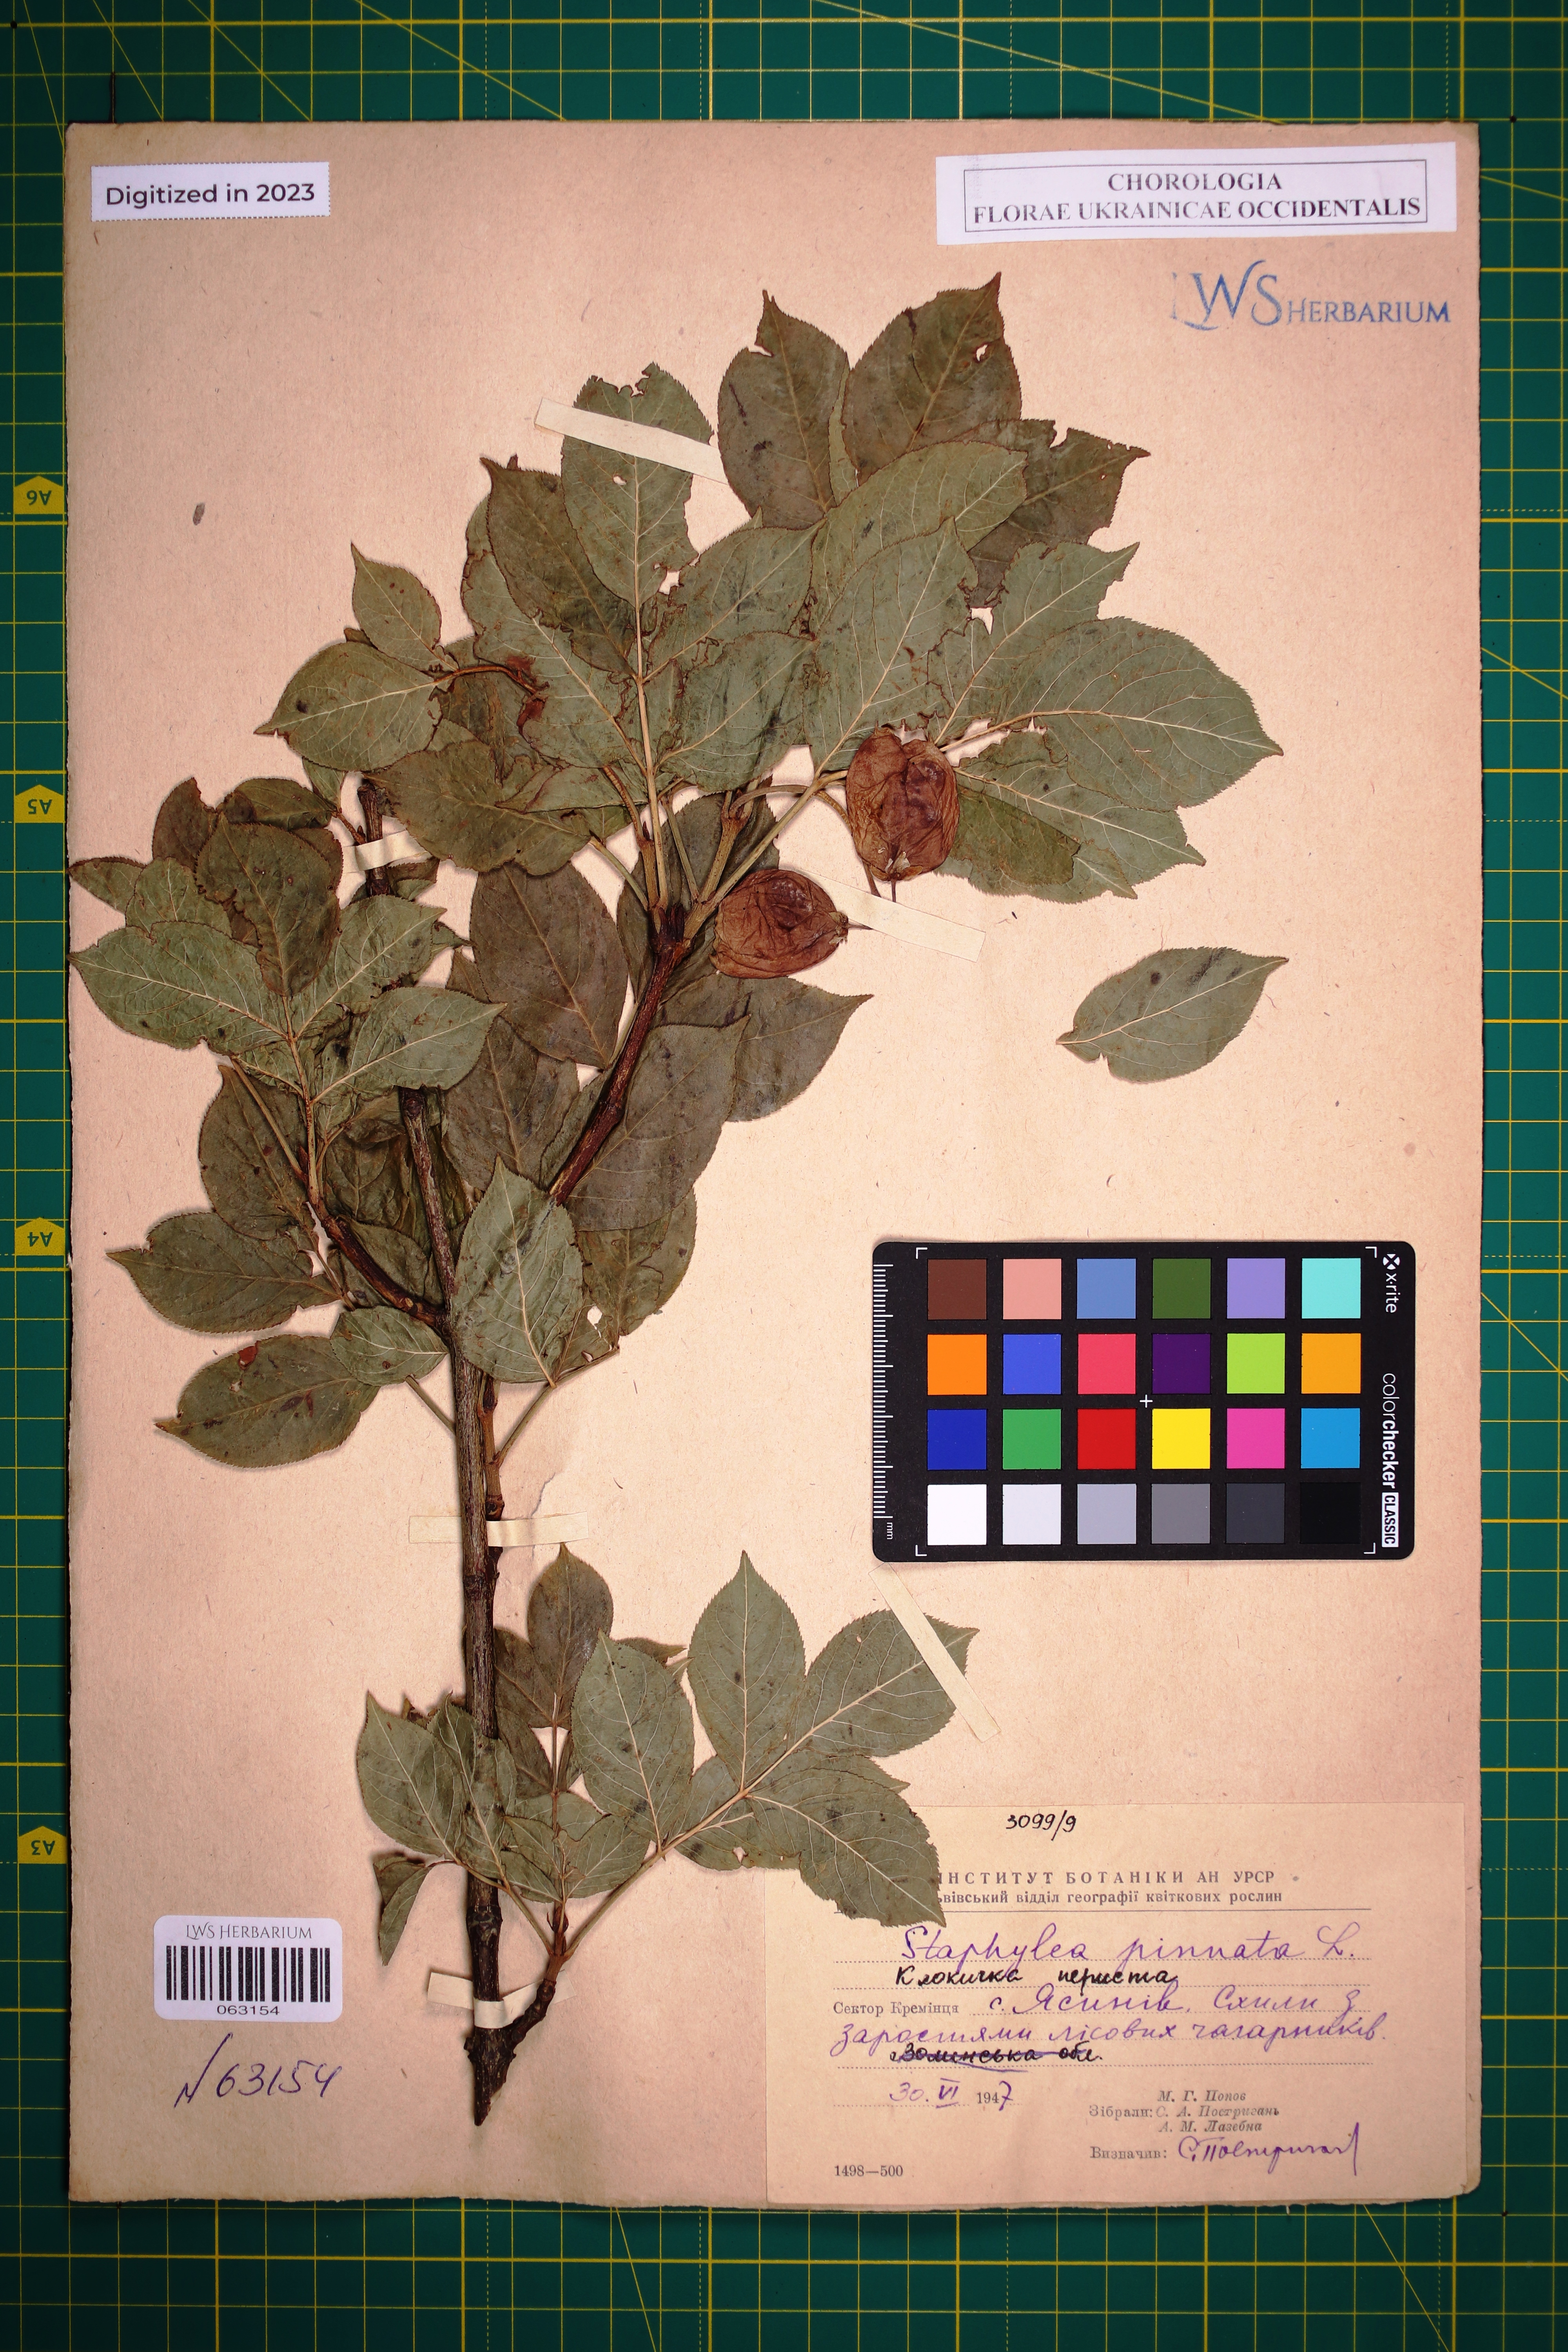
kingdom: Plantae
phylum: Tracheophyta
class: Magnoliopsida
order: Crossosomatales
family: Staphyleaceae
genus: Staphylea
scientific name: Staphylea pinnata
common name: Bladdernut
